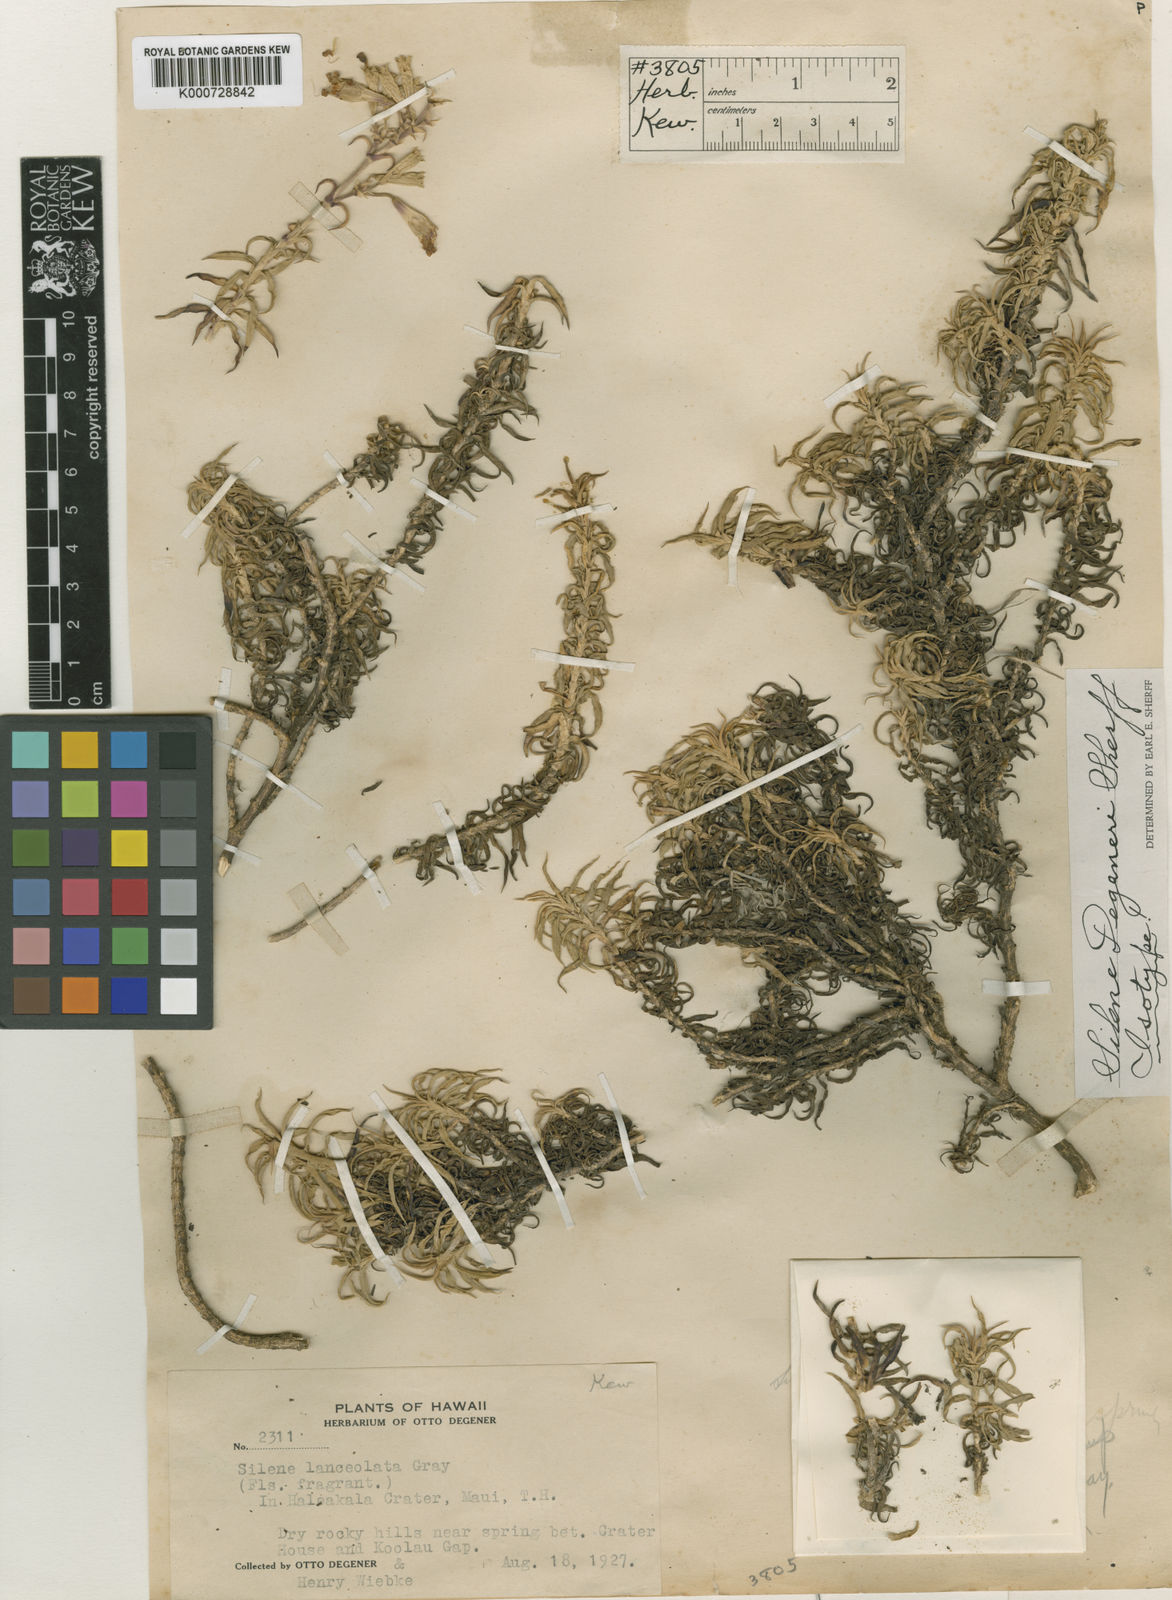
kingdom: Plantae
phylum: Tracheophyta
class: Magnoliopsida
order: Caryophyllales
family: Caryophyllaceae
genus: Silene
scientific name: Silene
